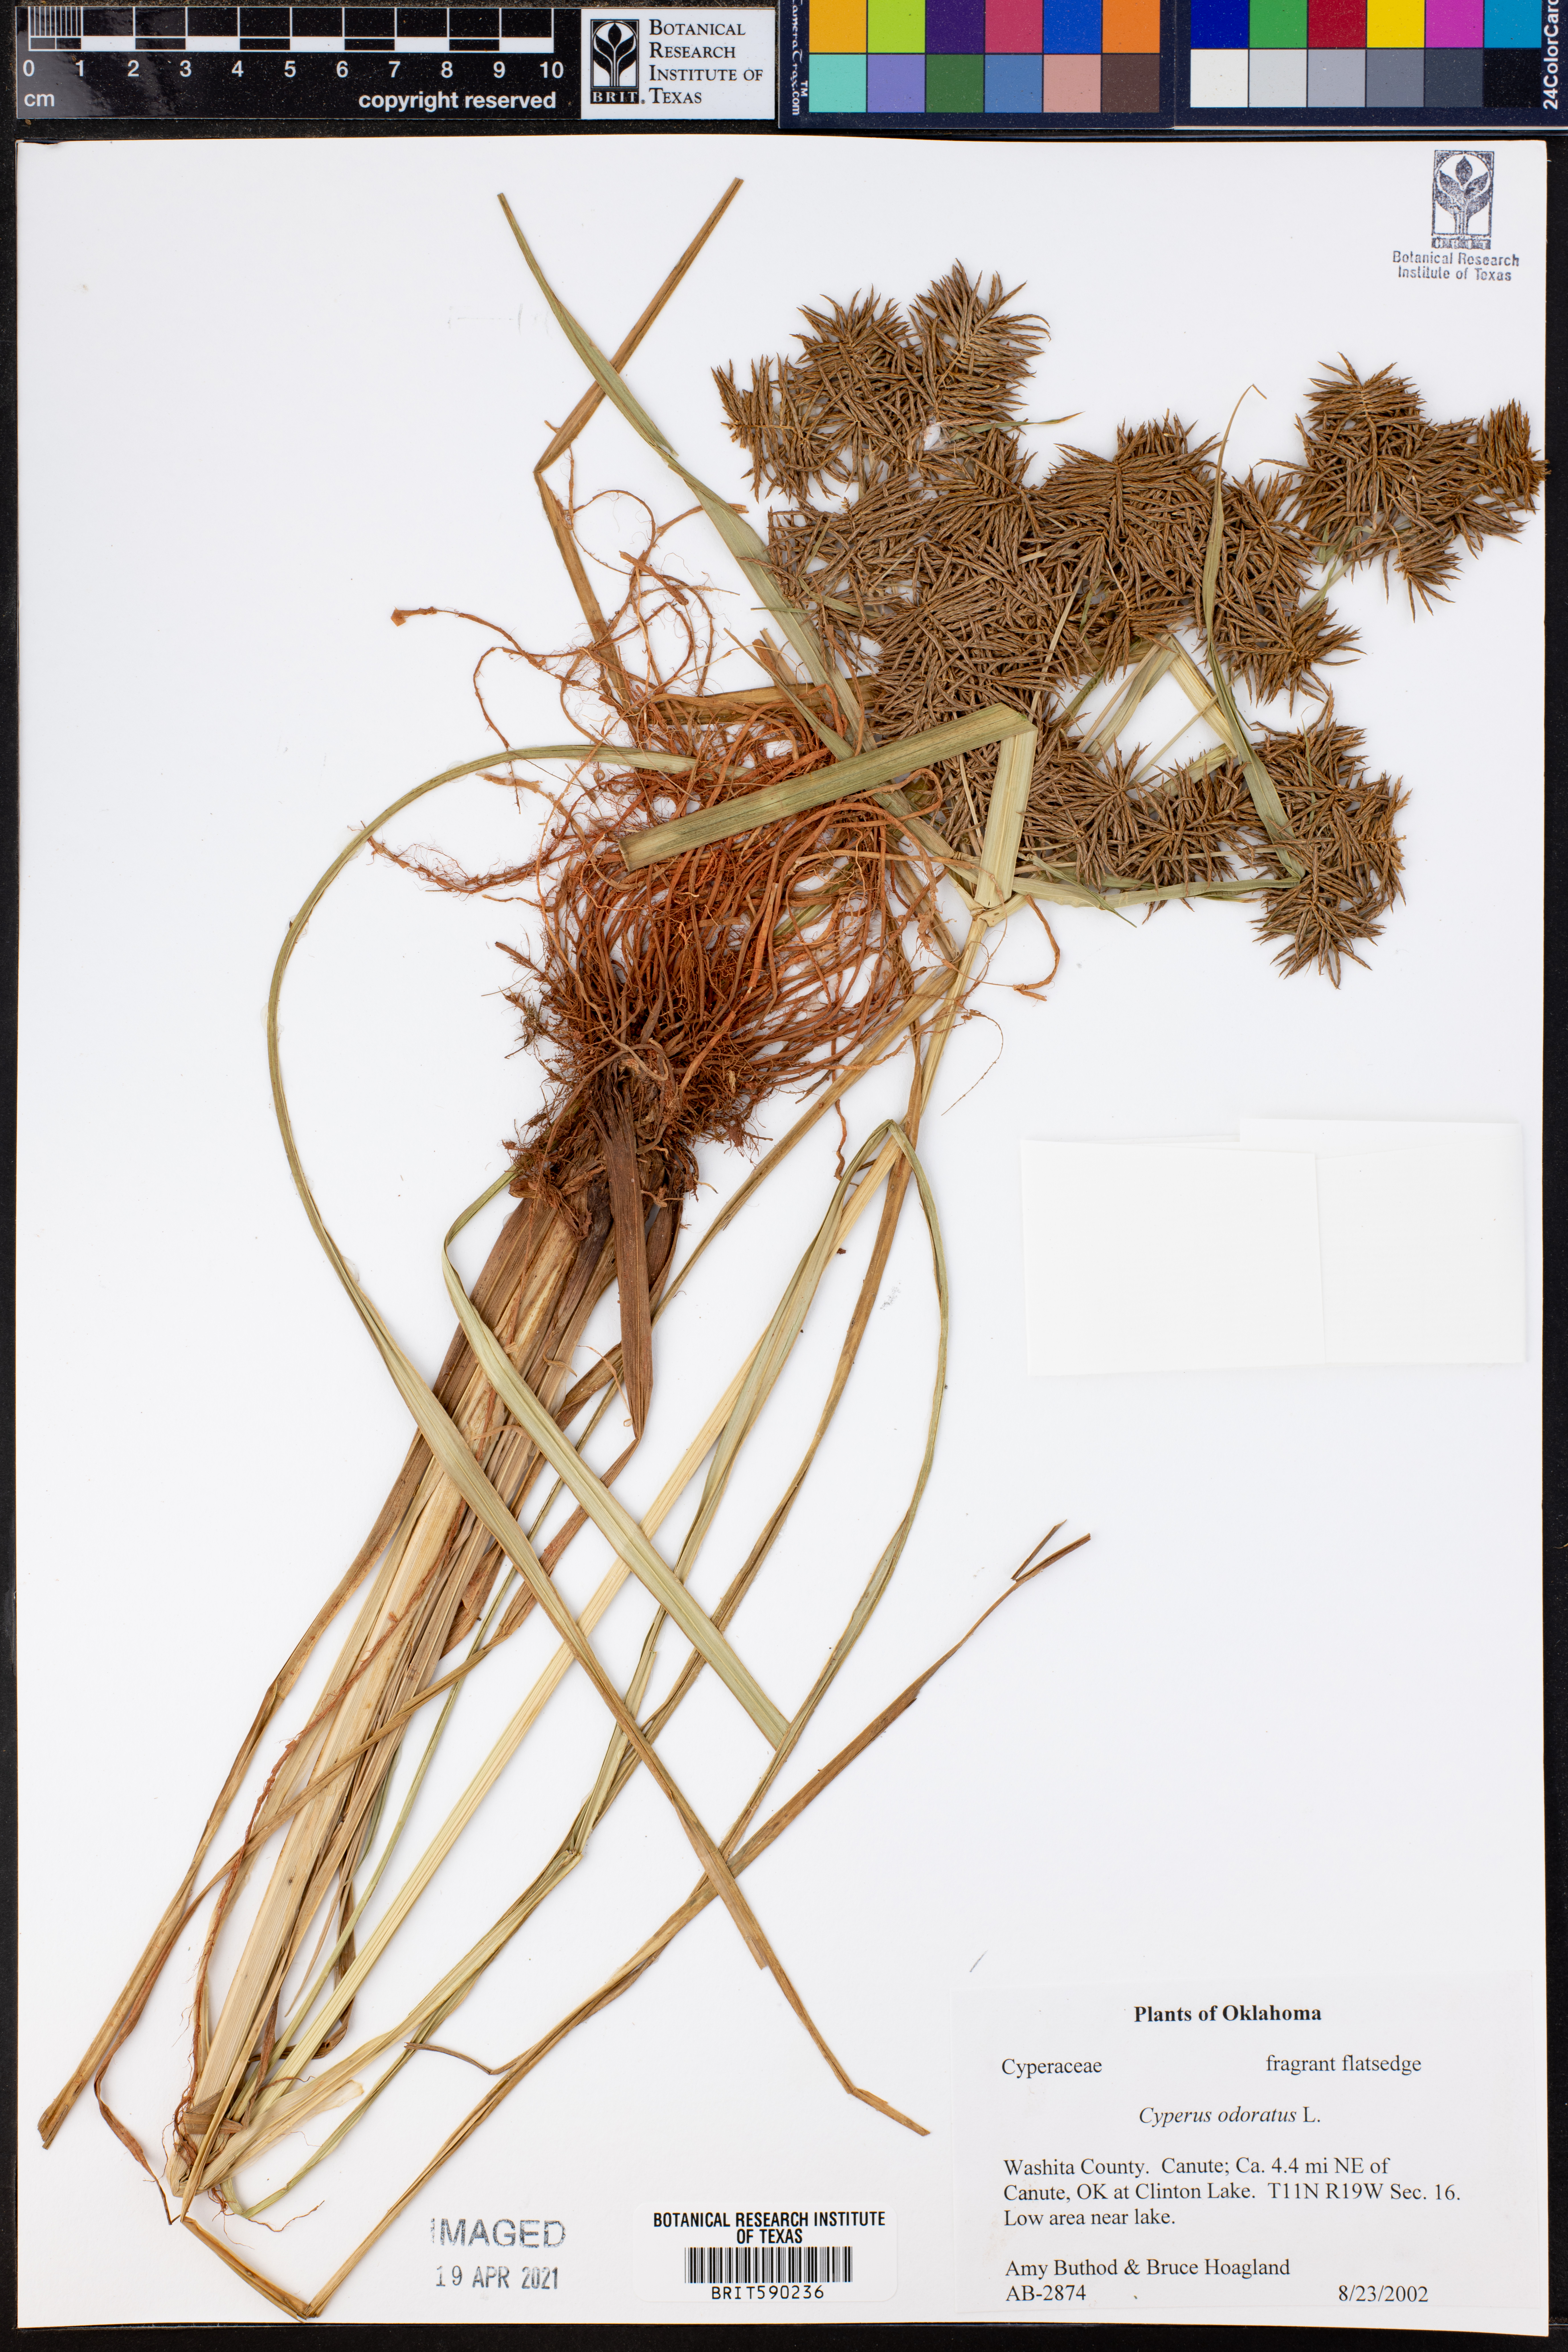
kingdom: Plantae
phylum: Tracheophyta
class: Liliopsida
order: Poales
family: Cyperaceae
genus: Cyperus
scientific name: Cyperus odoratus
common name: Fragrant flatsedge
